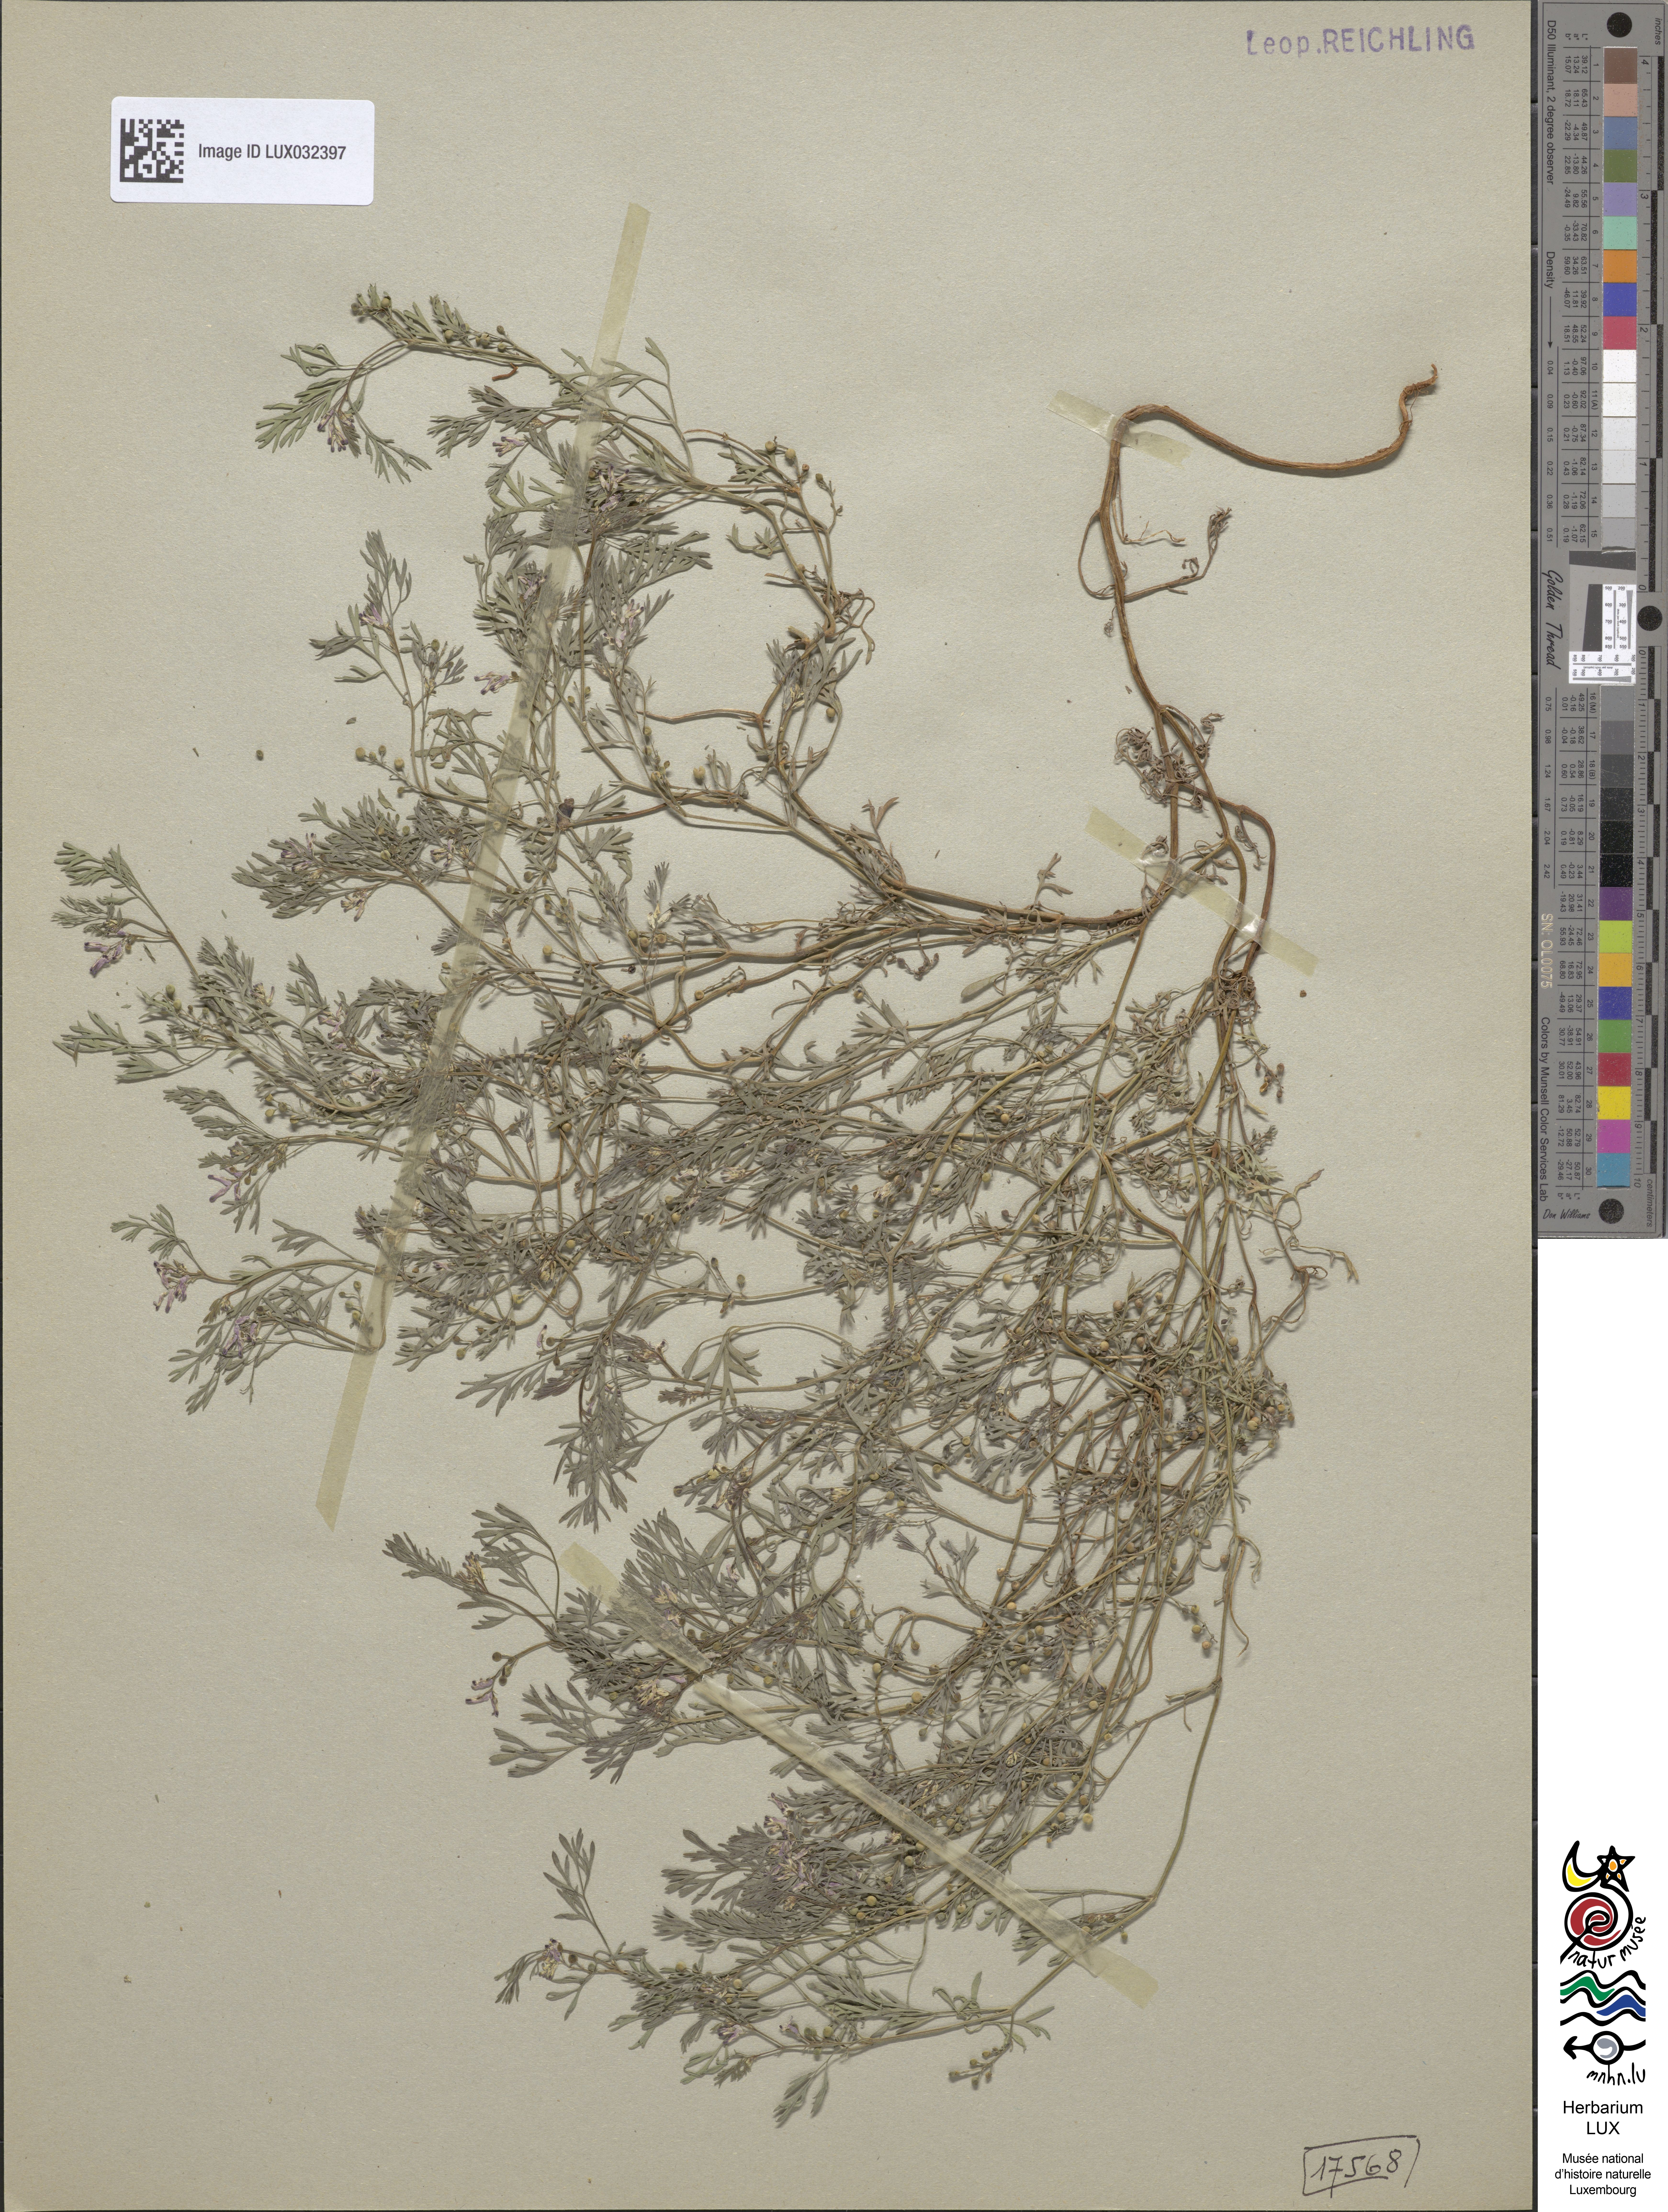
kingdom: Plantae
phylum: Tracheophyta
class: Magnoliopsida
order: Ranunculales
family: Papaveraceae
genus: Fumaria
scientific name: Fumaria vaillantii
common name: Few-flowered fumitory
